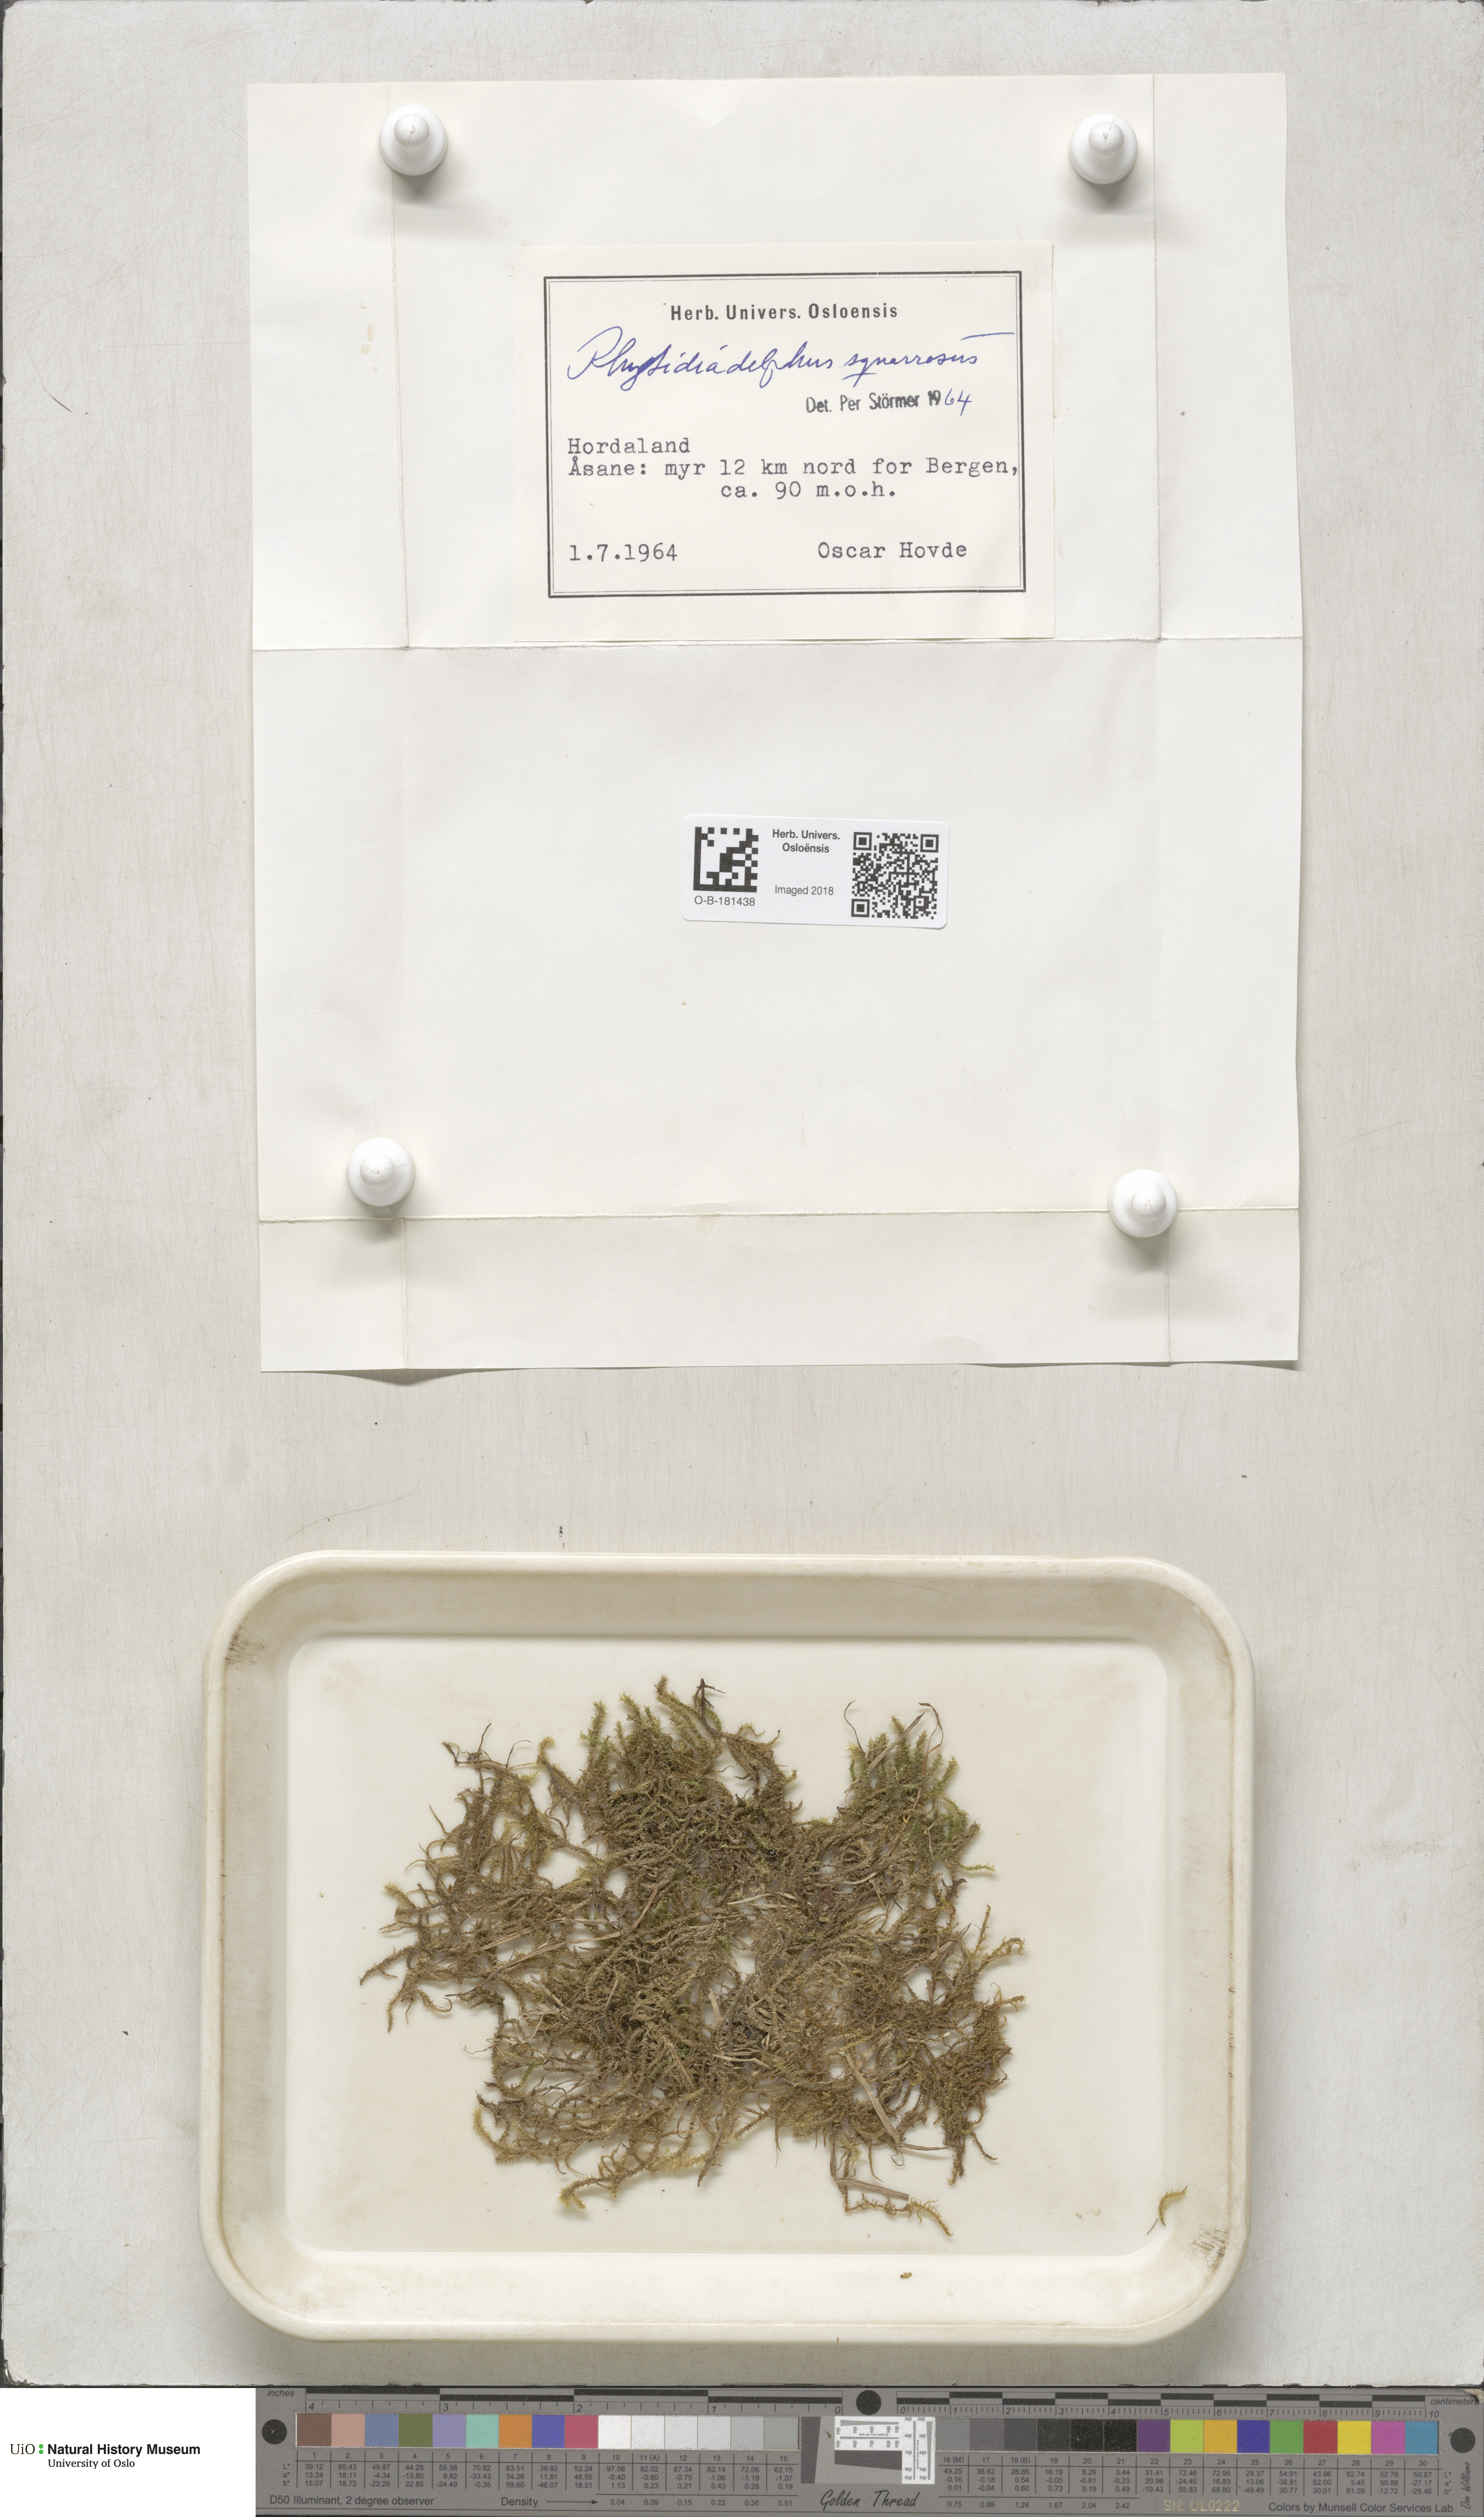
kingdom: Plantae
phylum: Bryophyta
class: Bryopsida
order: Hypnales
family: Hylocomiaceae
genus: Rhytidiadelphus
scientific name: Rhytidiadelphus squarrosus
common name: Springy turf-moss
